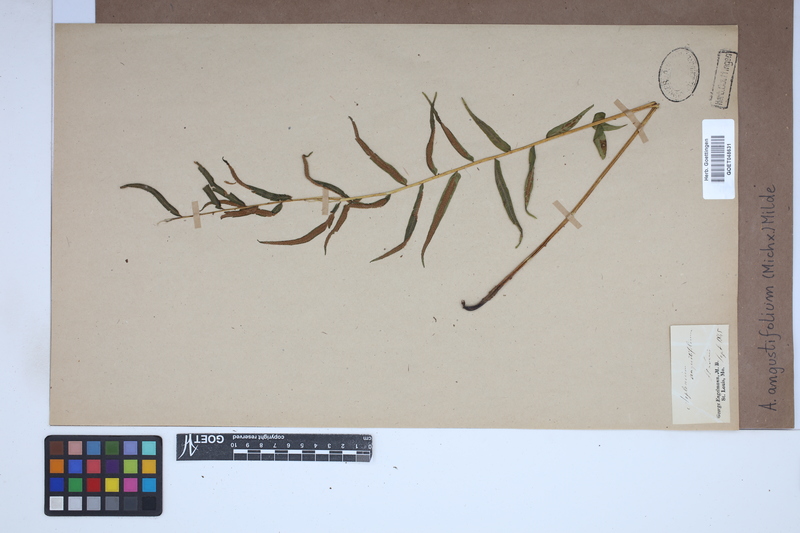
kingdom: Plantae
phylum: Tracheophyta
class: Polypodiopsida
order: Polypodiales
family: Diplaziopsidaceae
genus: Homalosorus
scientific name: Homalosorus pycnocarpos
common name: Glade fern
